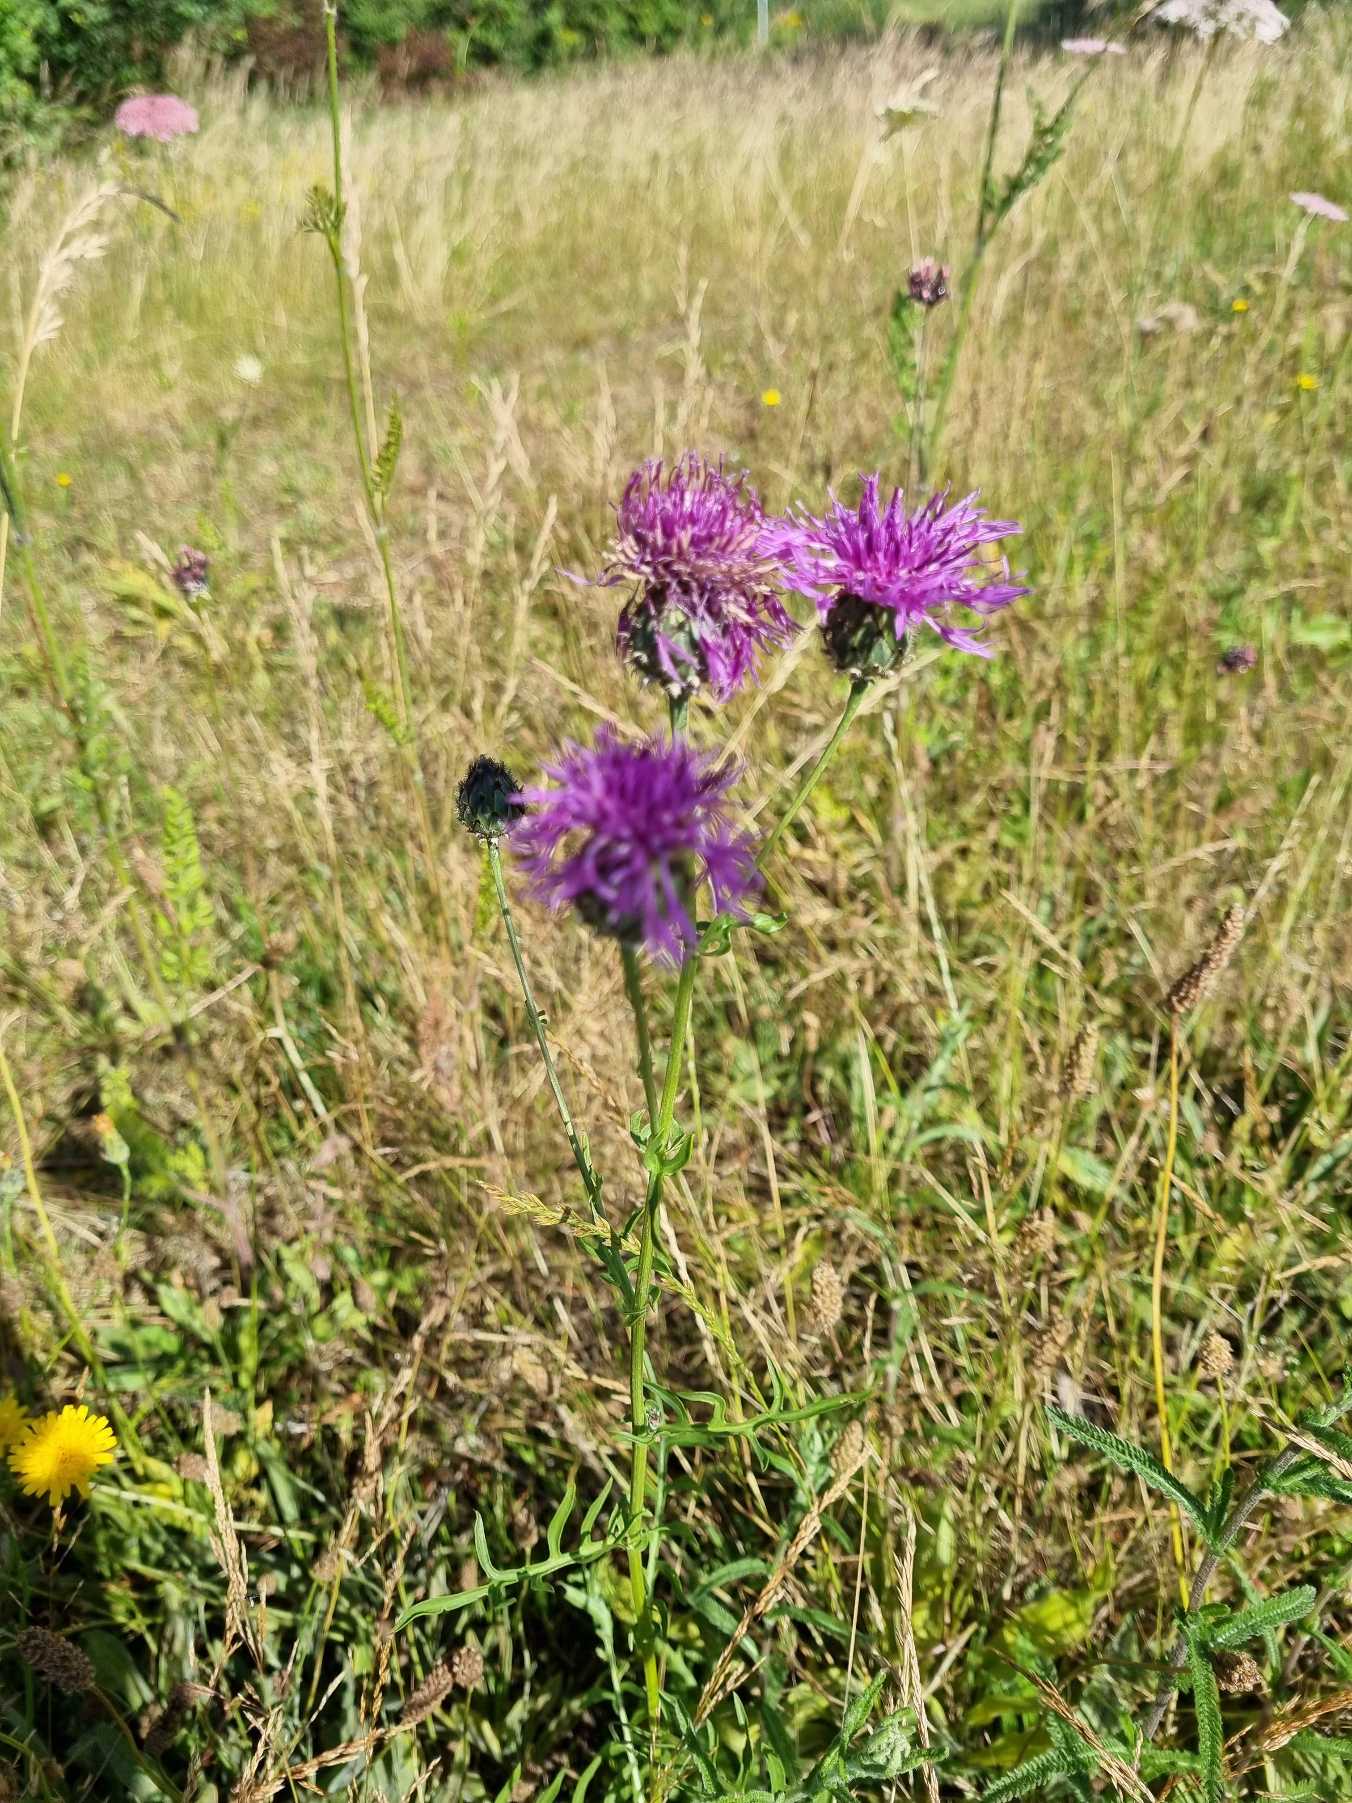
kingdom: Plantae
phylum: Tracheophyta
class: Magnoliopsida
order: Asterales
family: Asteraceae
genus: Centaurea
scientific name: Centaurea scabiosa
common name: Stor knopurt
